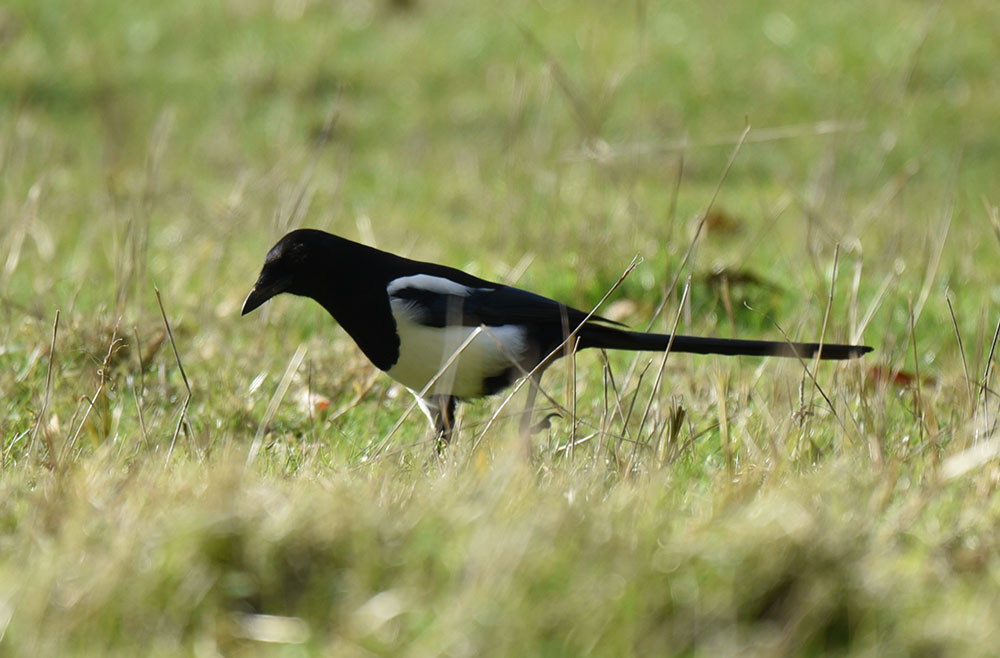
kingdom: Animalia
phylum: Chordata
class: Aves
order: Passeriformes
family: Corvidae
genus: Pica
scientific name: Pica pica
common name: Eurasian magpie
